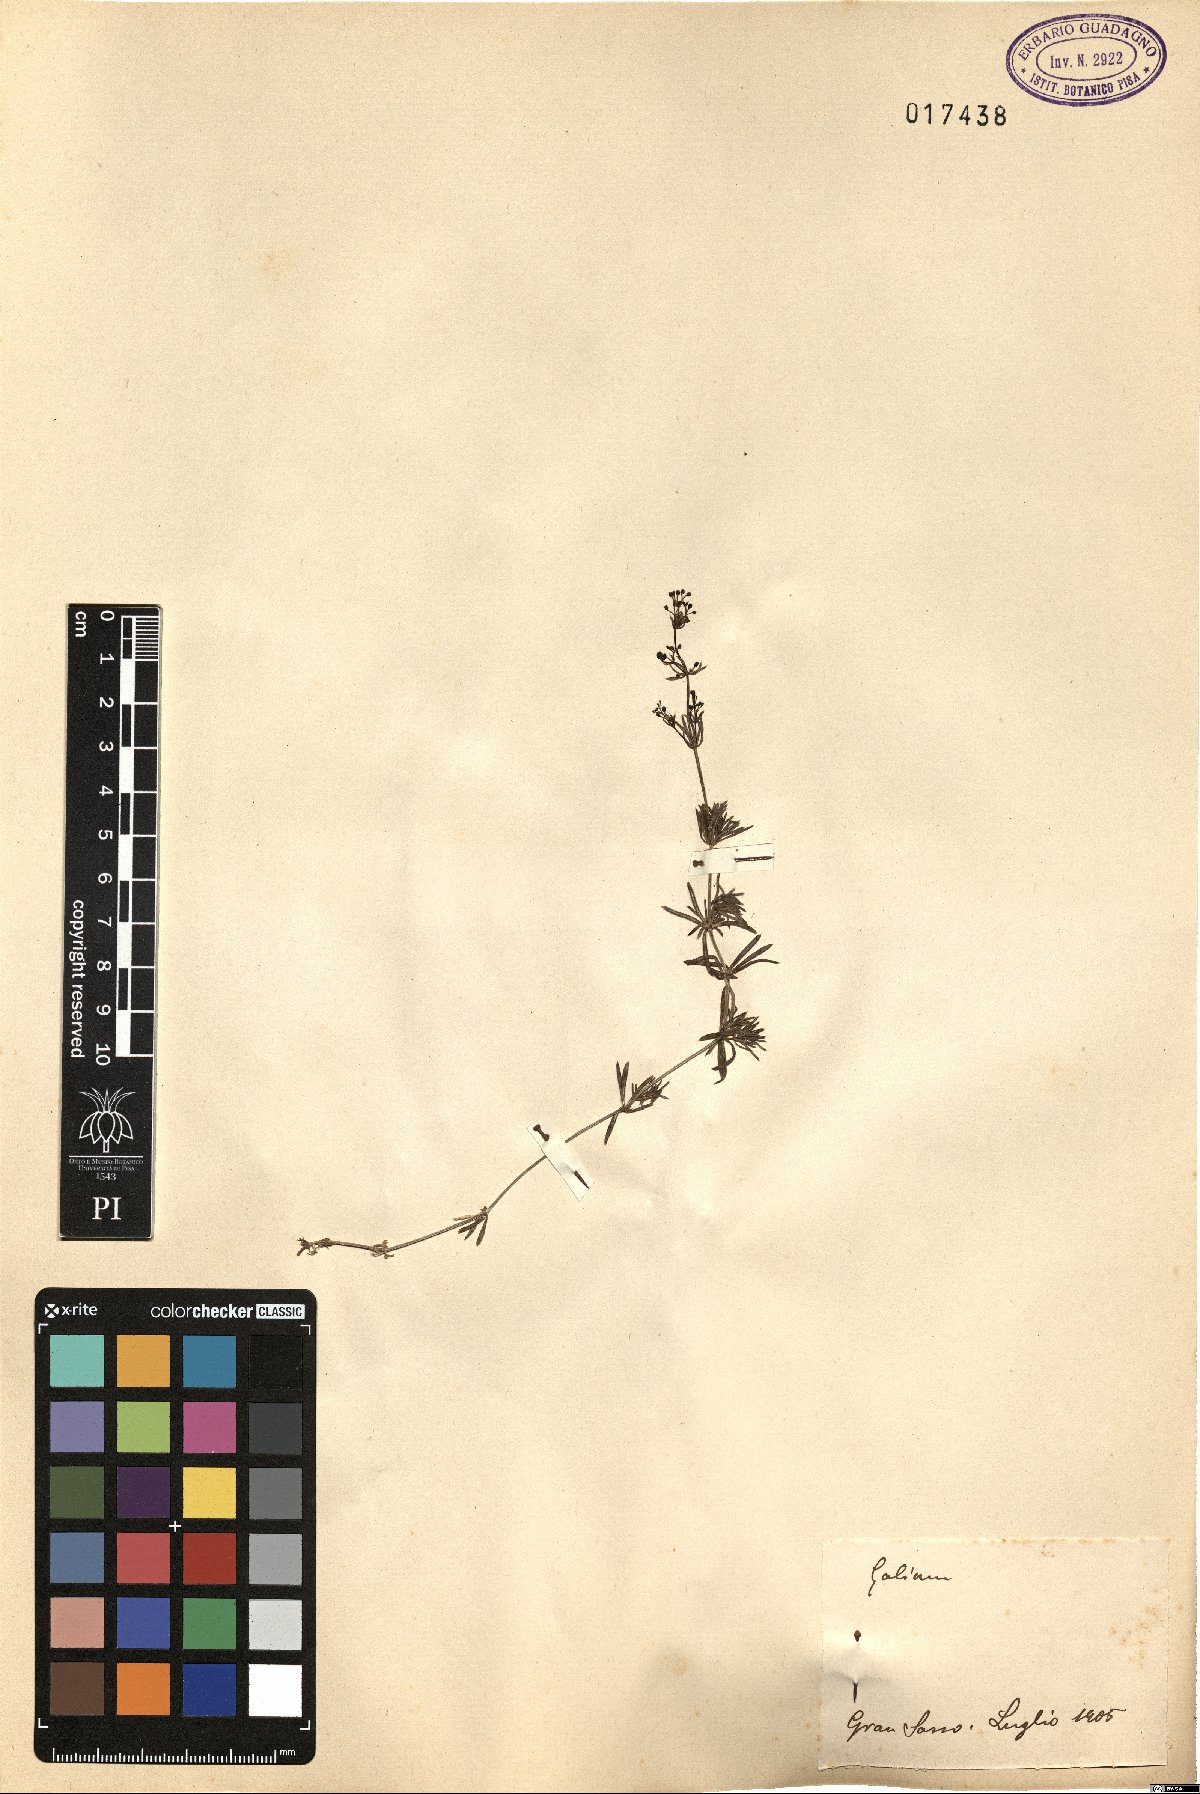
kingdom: Plantae
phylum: Tracheophyta
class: Magnoliopsida
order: Gentianales
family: Rubiaceae
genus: Galium
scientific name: Galium
